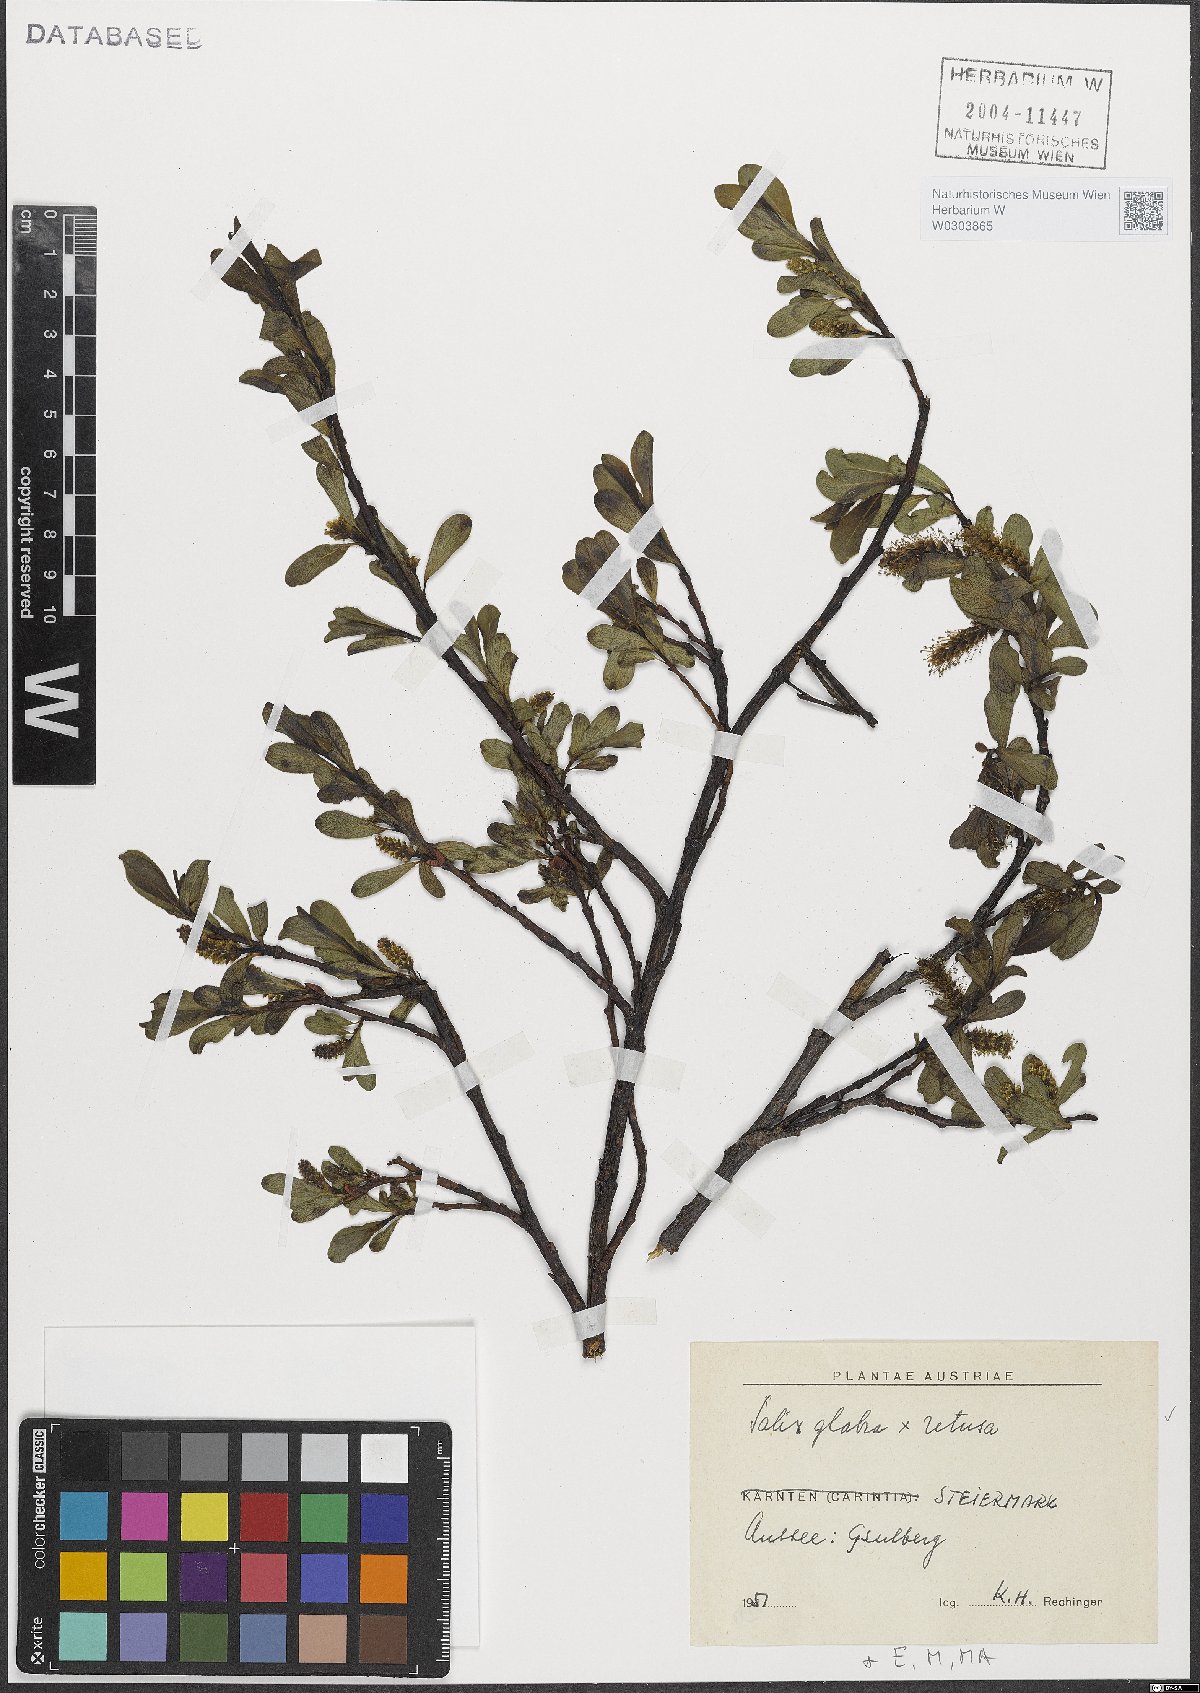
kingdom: Plantae
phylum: Tracheophyta
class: Magnoliopsida
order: Malpighiales
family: Salicaceae
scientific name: Salicaceae
